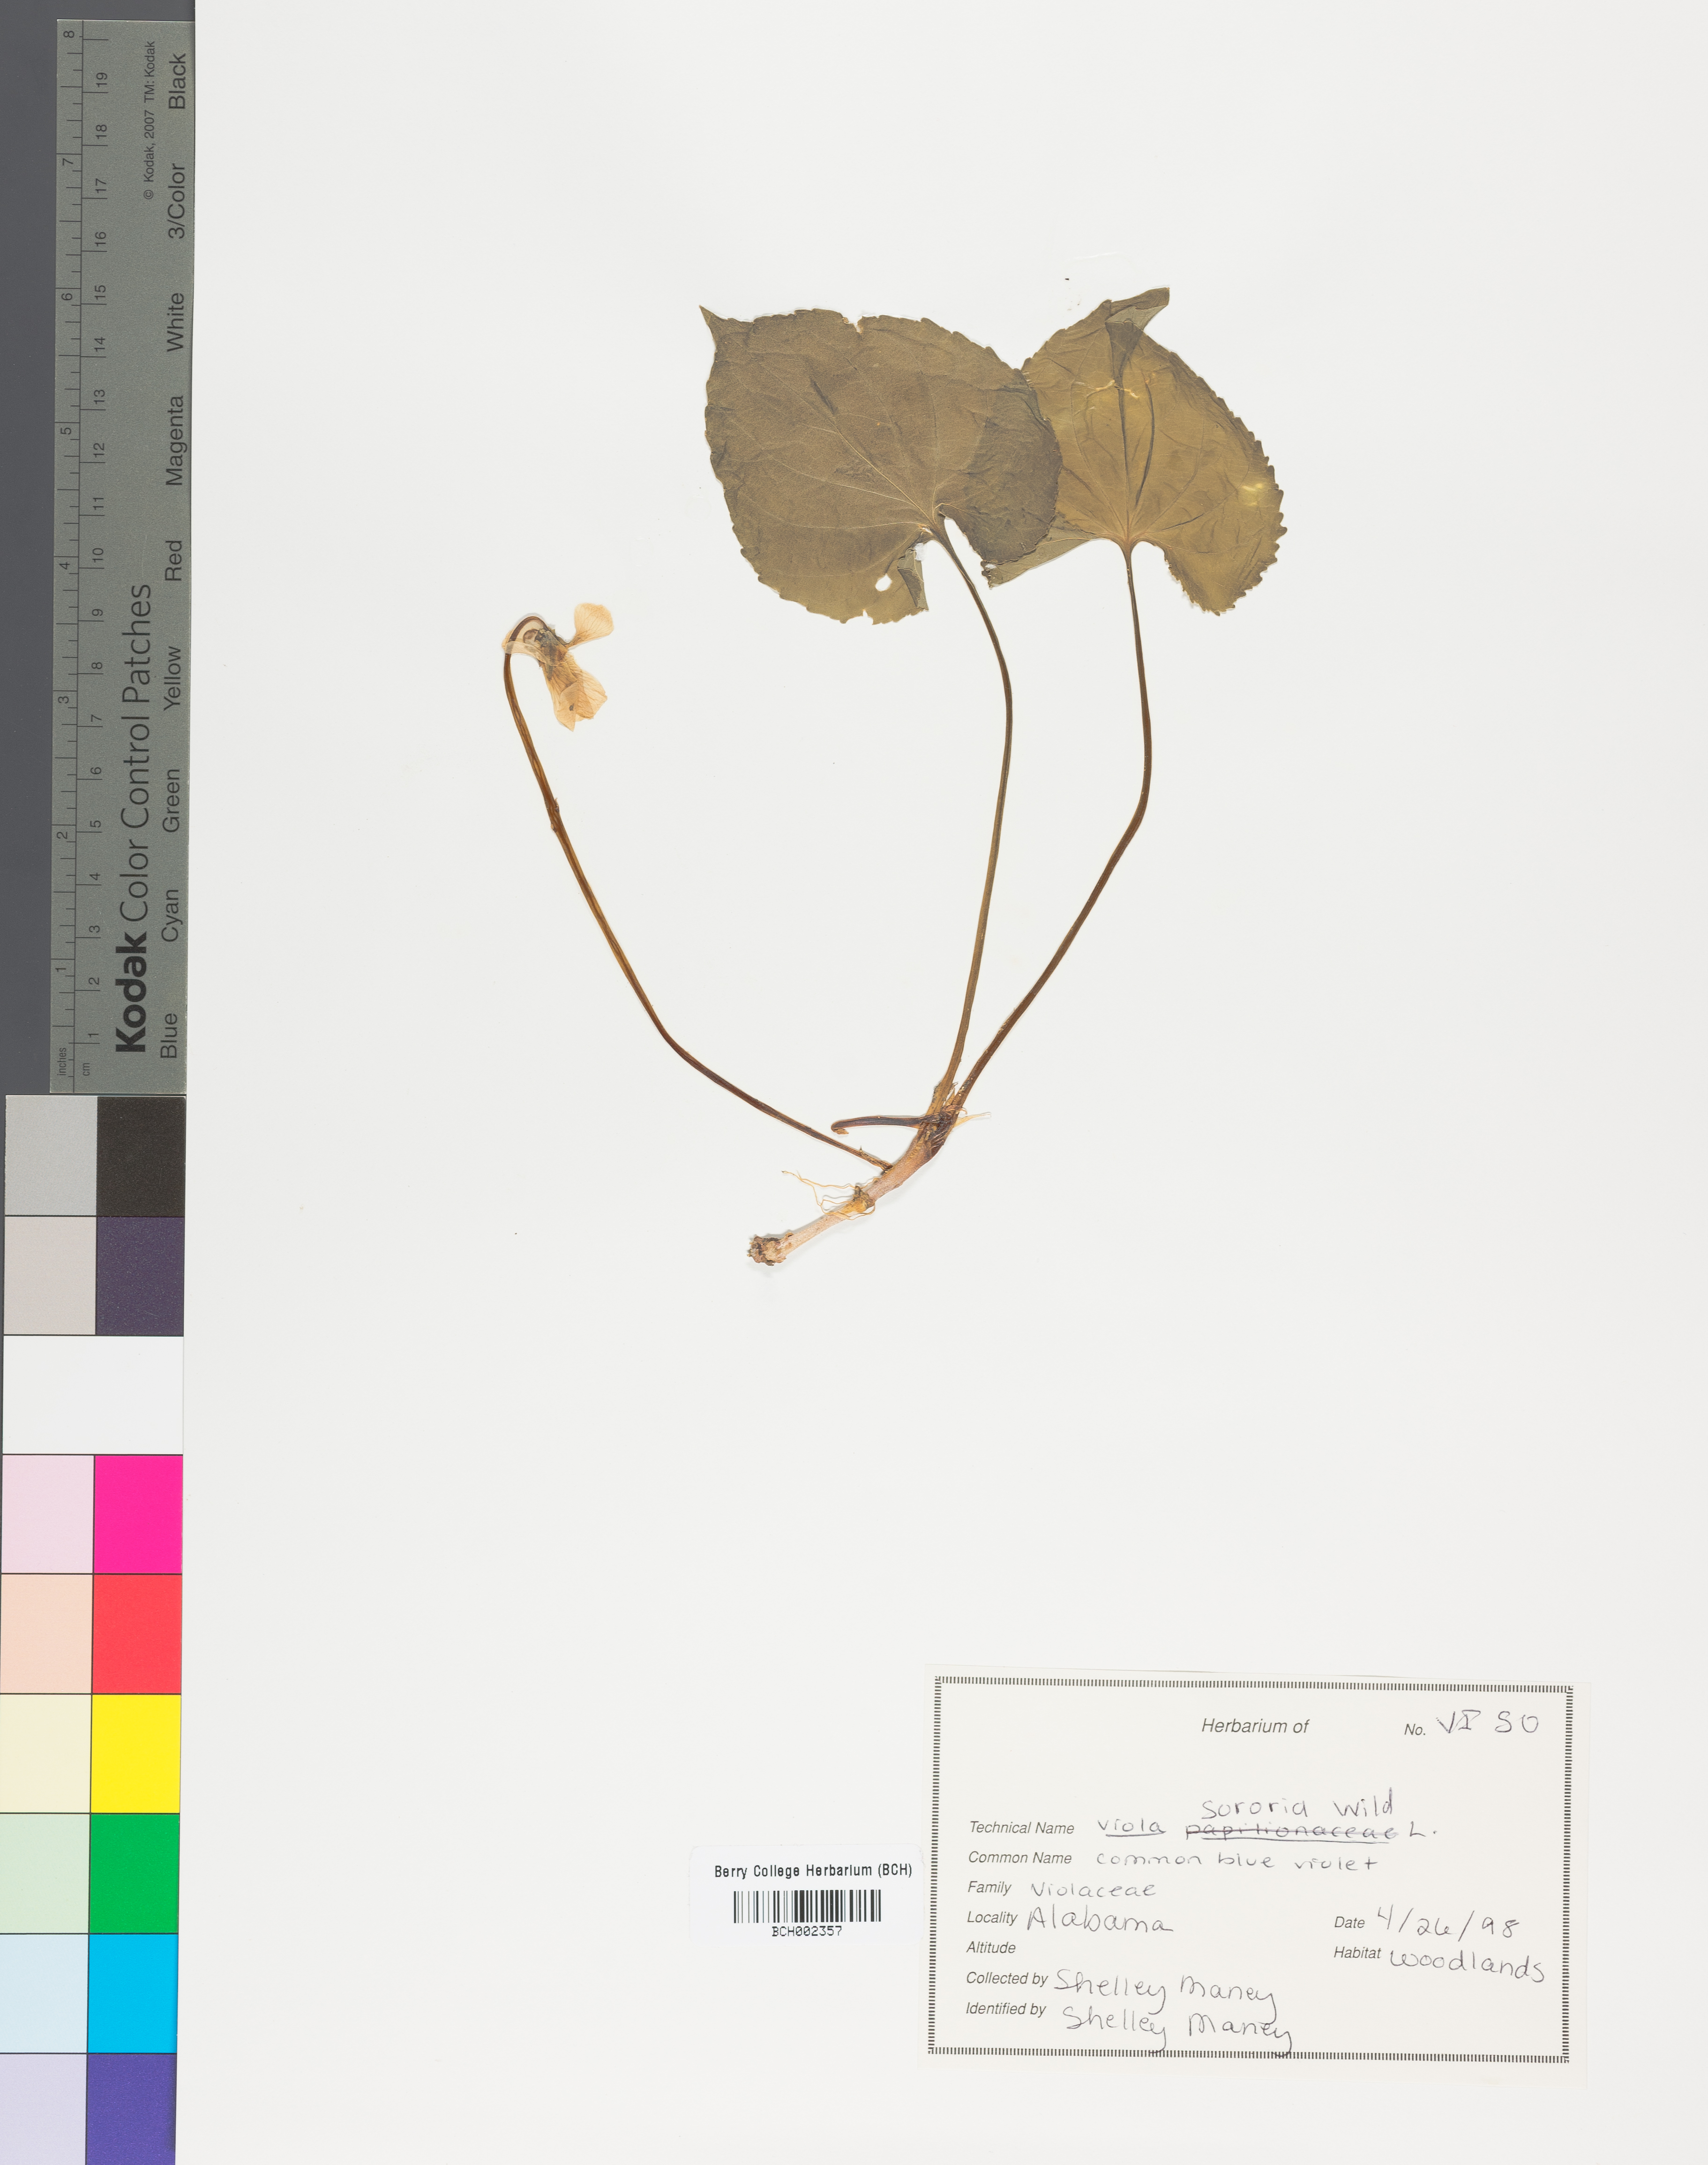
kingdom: Plantae
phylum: Tracheophyta
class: Magnoliopsida
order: Malpighiales
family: Violaceae
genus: Viola
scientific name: Viola sororia
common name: Dooryard violet
